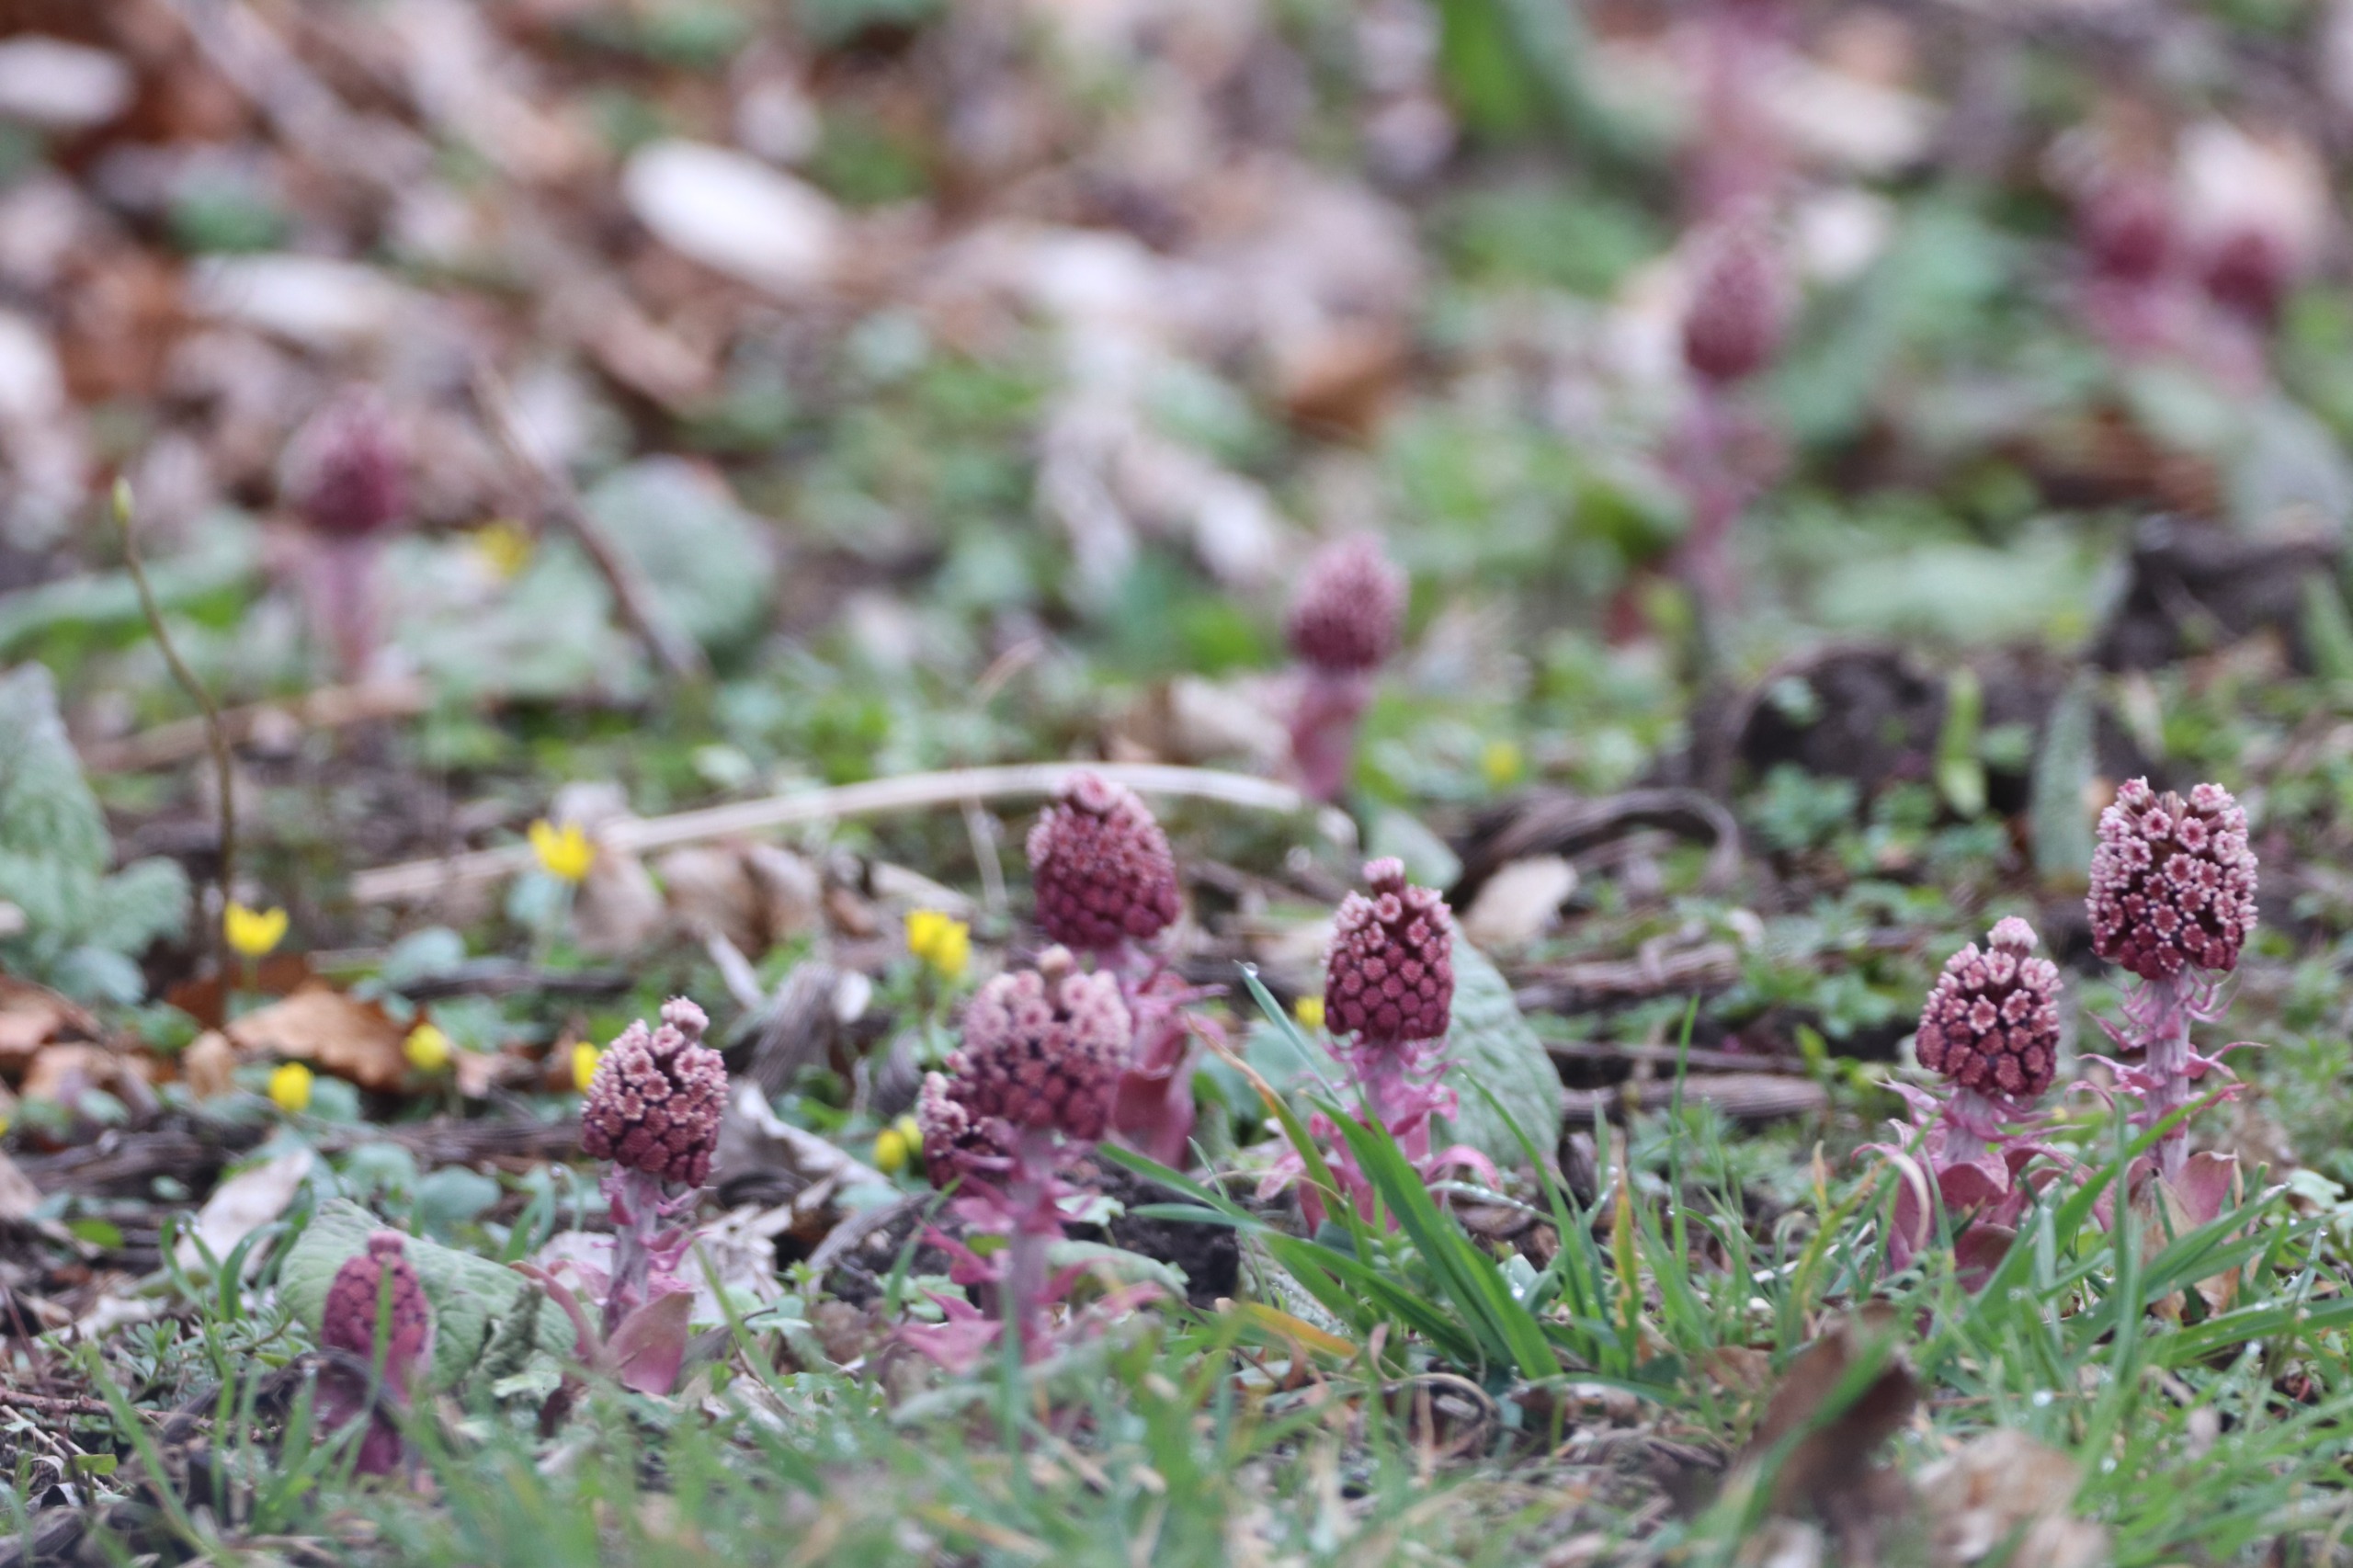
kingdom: Plantae
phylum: Tracheophyta
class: Magnoliopsida
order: Asterales
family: Asteraceae
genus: Petasites
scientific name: Petasites hybridus
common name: Rød hestehov
